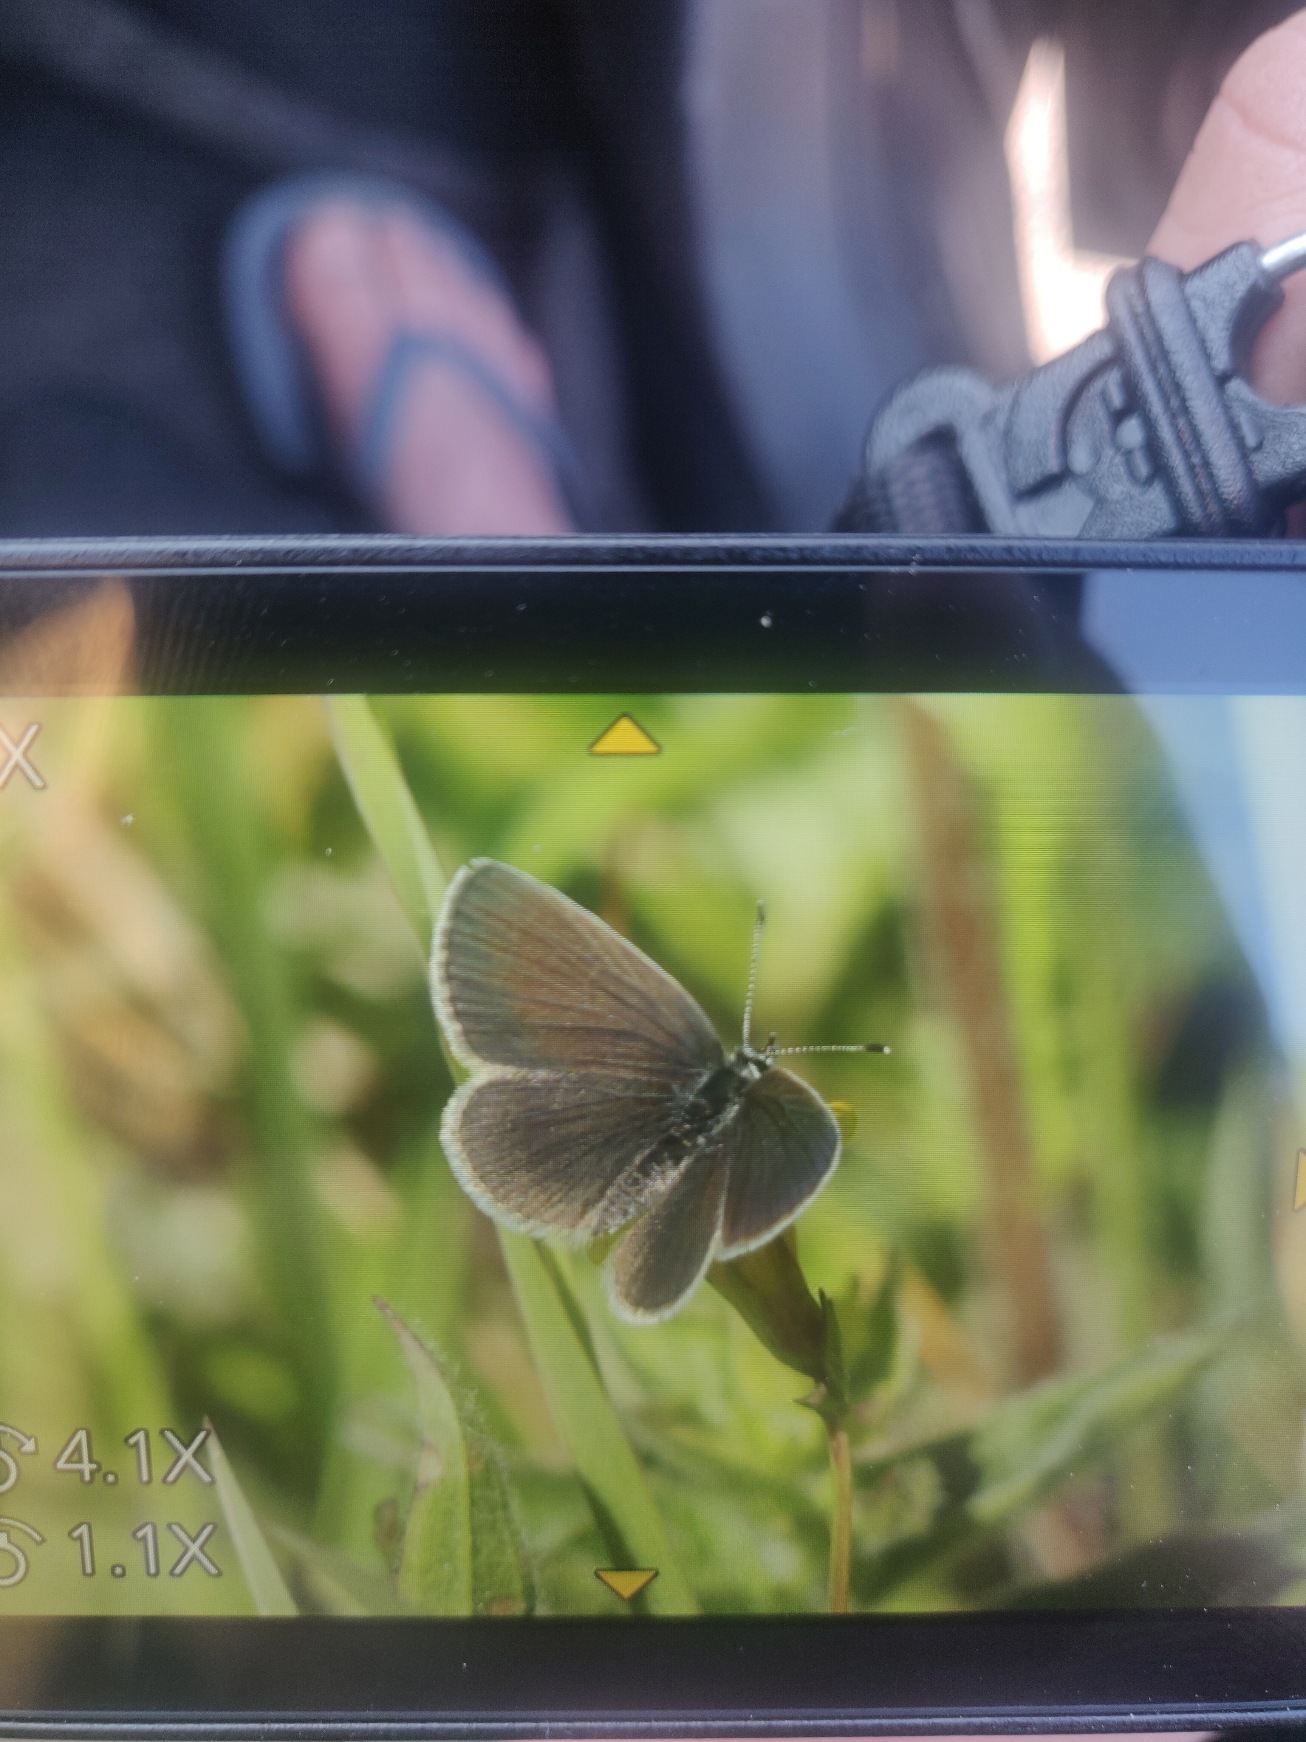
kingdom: Animalia
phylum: Arthropoda
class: Insecta
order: Lepidoptera
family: Lycaenidae
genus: Cupido
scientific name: Cupido minimus
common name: Dværgblåfugl
